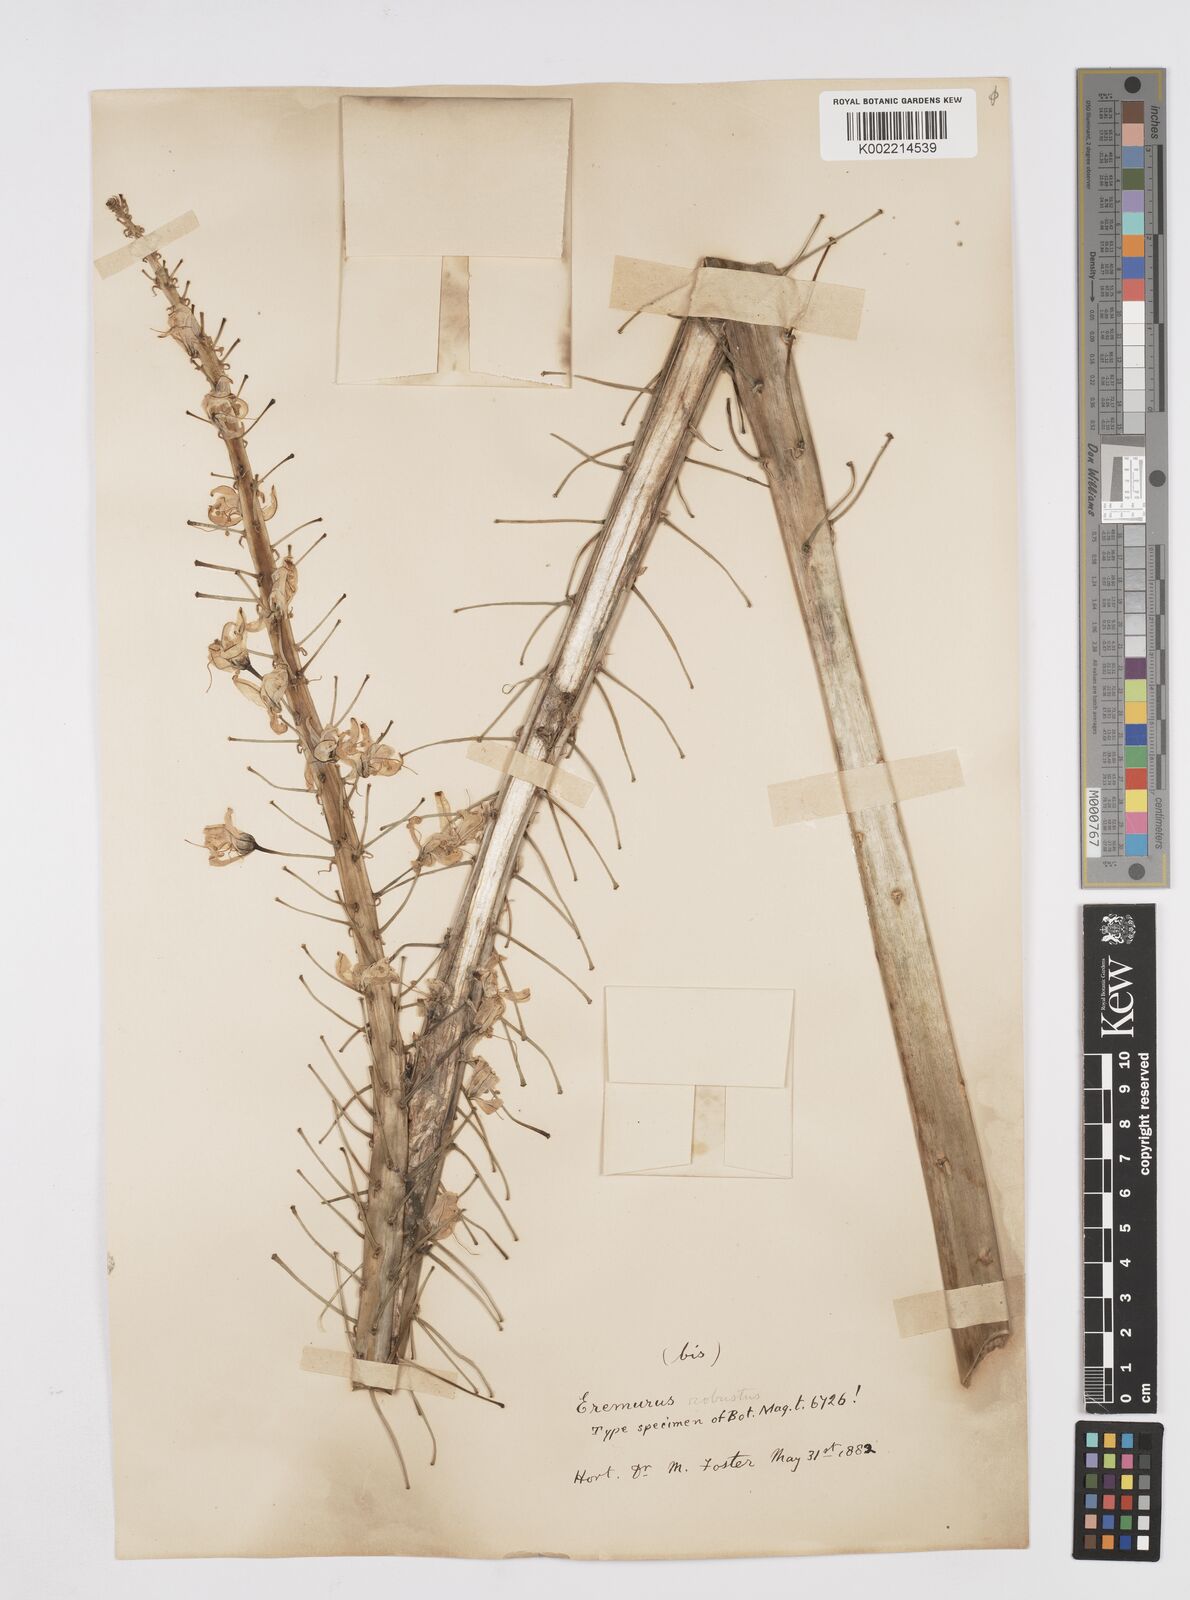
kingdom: Plantae
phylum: Tracheophyta
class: Liliopsida
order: Asparagales
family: Asphodelaceae
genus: Eremurus
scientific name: Eremurus robustus
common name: Foxtail lily
